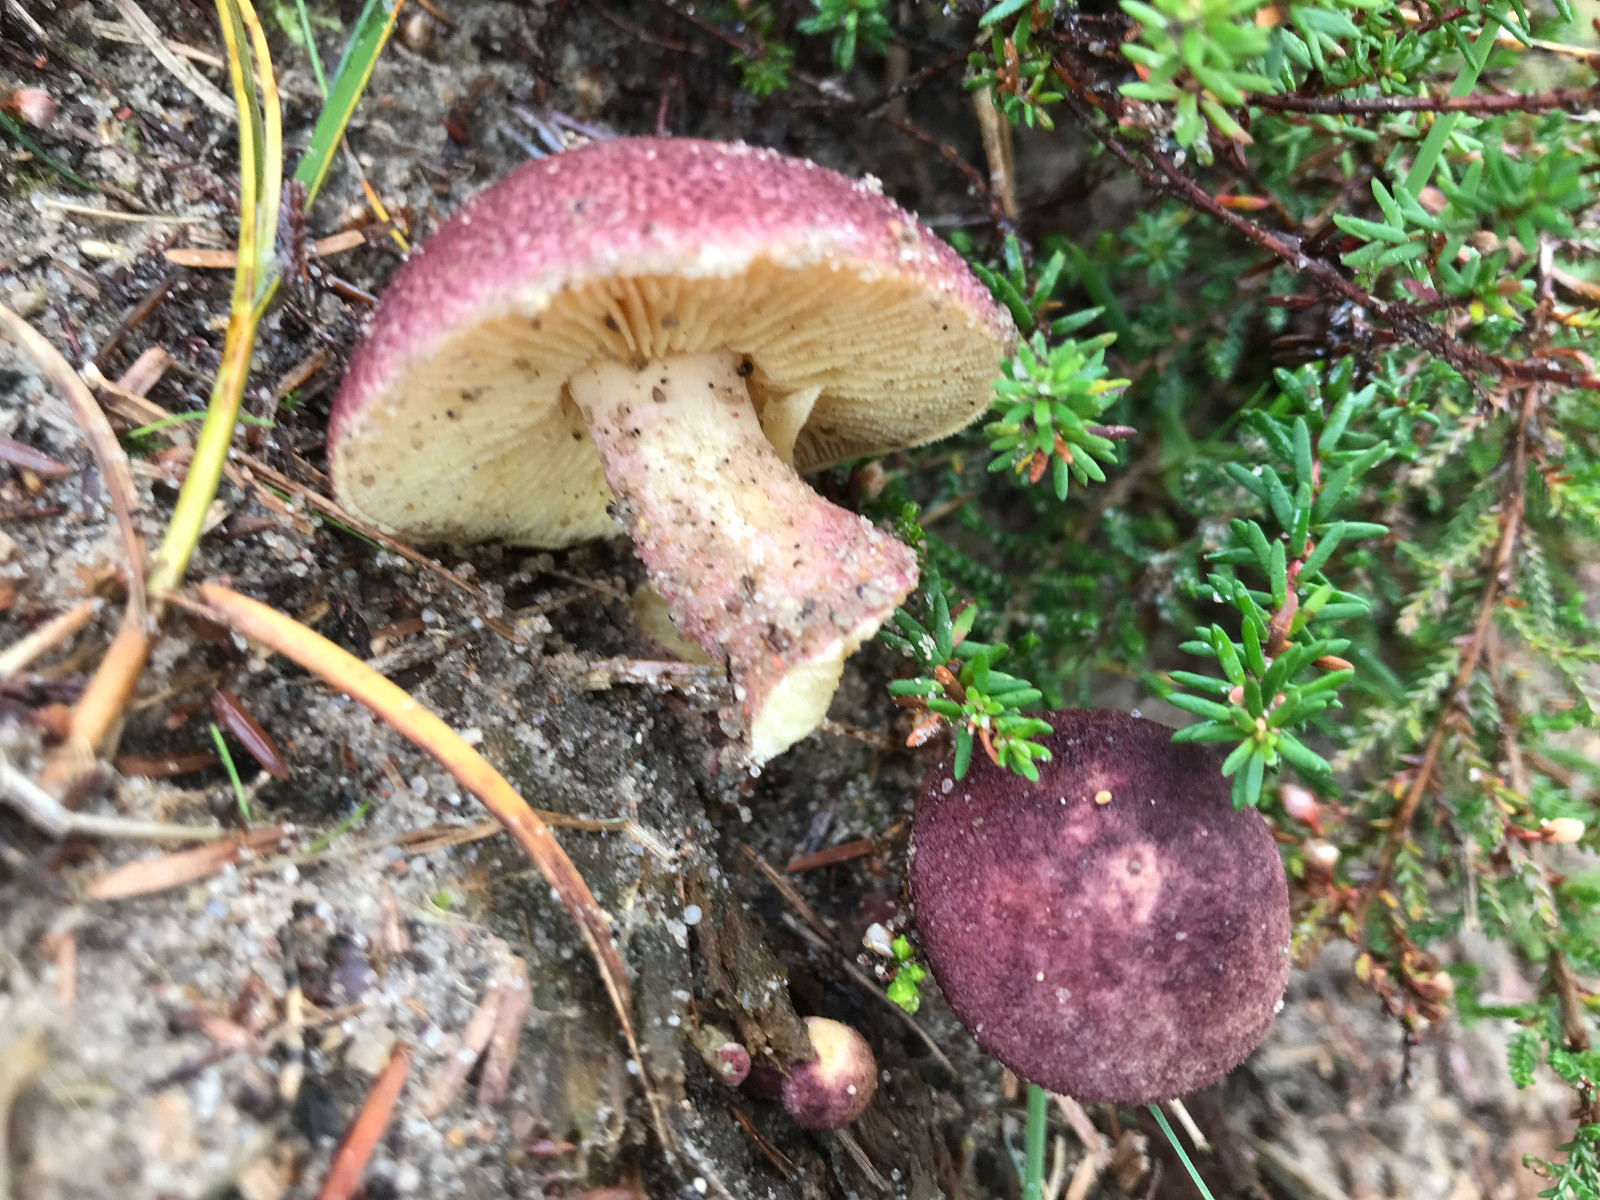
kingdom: Fungi
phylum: Basidiomycota
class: Agaricomycetes
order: Agaricales
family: Tricholomataceae
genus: Tricholomopsis
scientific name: Tricholomopsis rutilans
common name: purpur-væbnerhat
